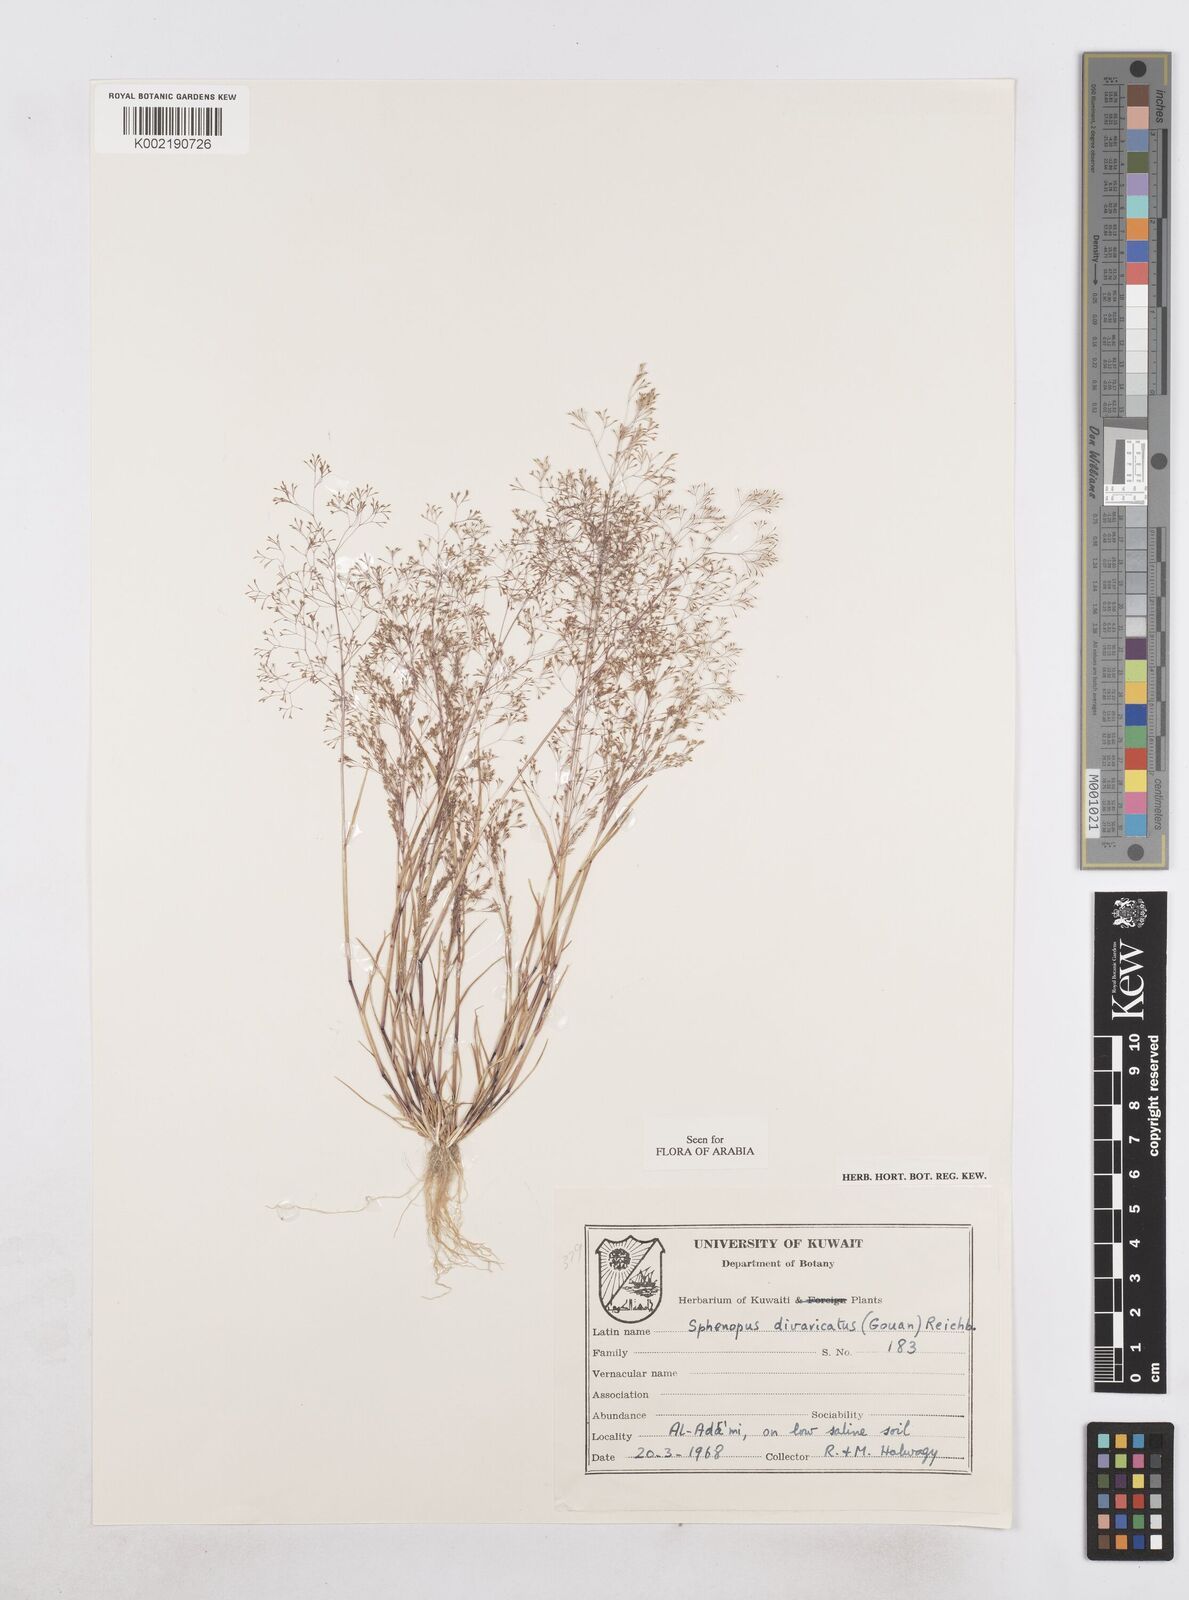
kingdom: Plantae
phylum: Tracheophyta
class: Liliopsida
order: Poales
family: Poaceae
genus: Sphenopus
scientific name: Sphenopus divaricatus
